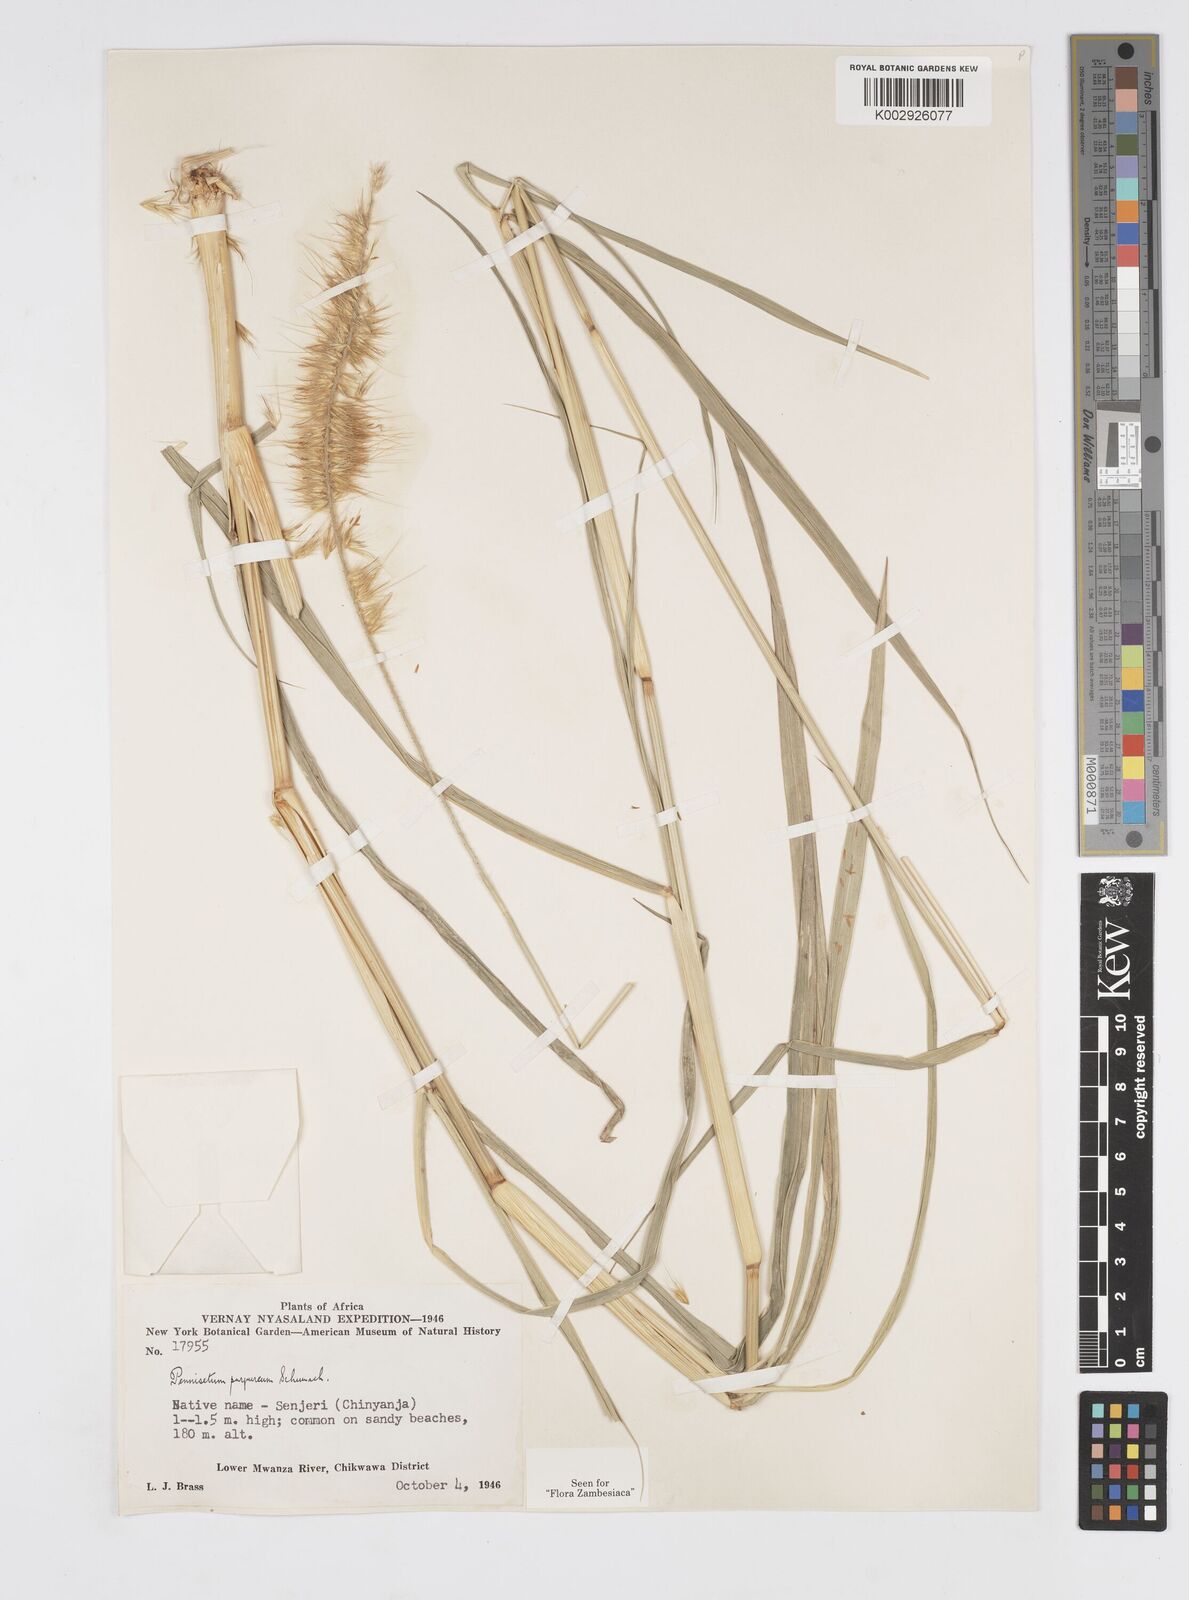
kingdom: Plantae
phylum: Tracheophyta
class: Liliopsida
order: Poales
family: Poaceae
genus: Cenchrus
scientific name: Cenchrus purpureus
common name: Elephant grass
